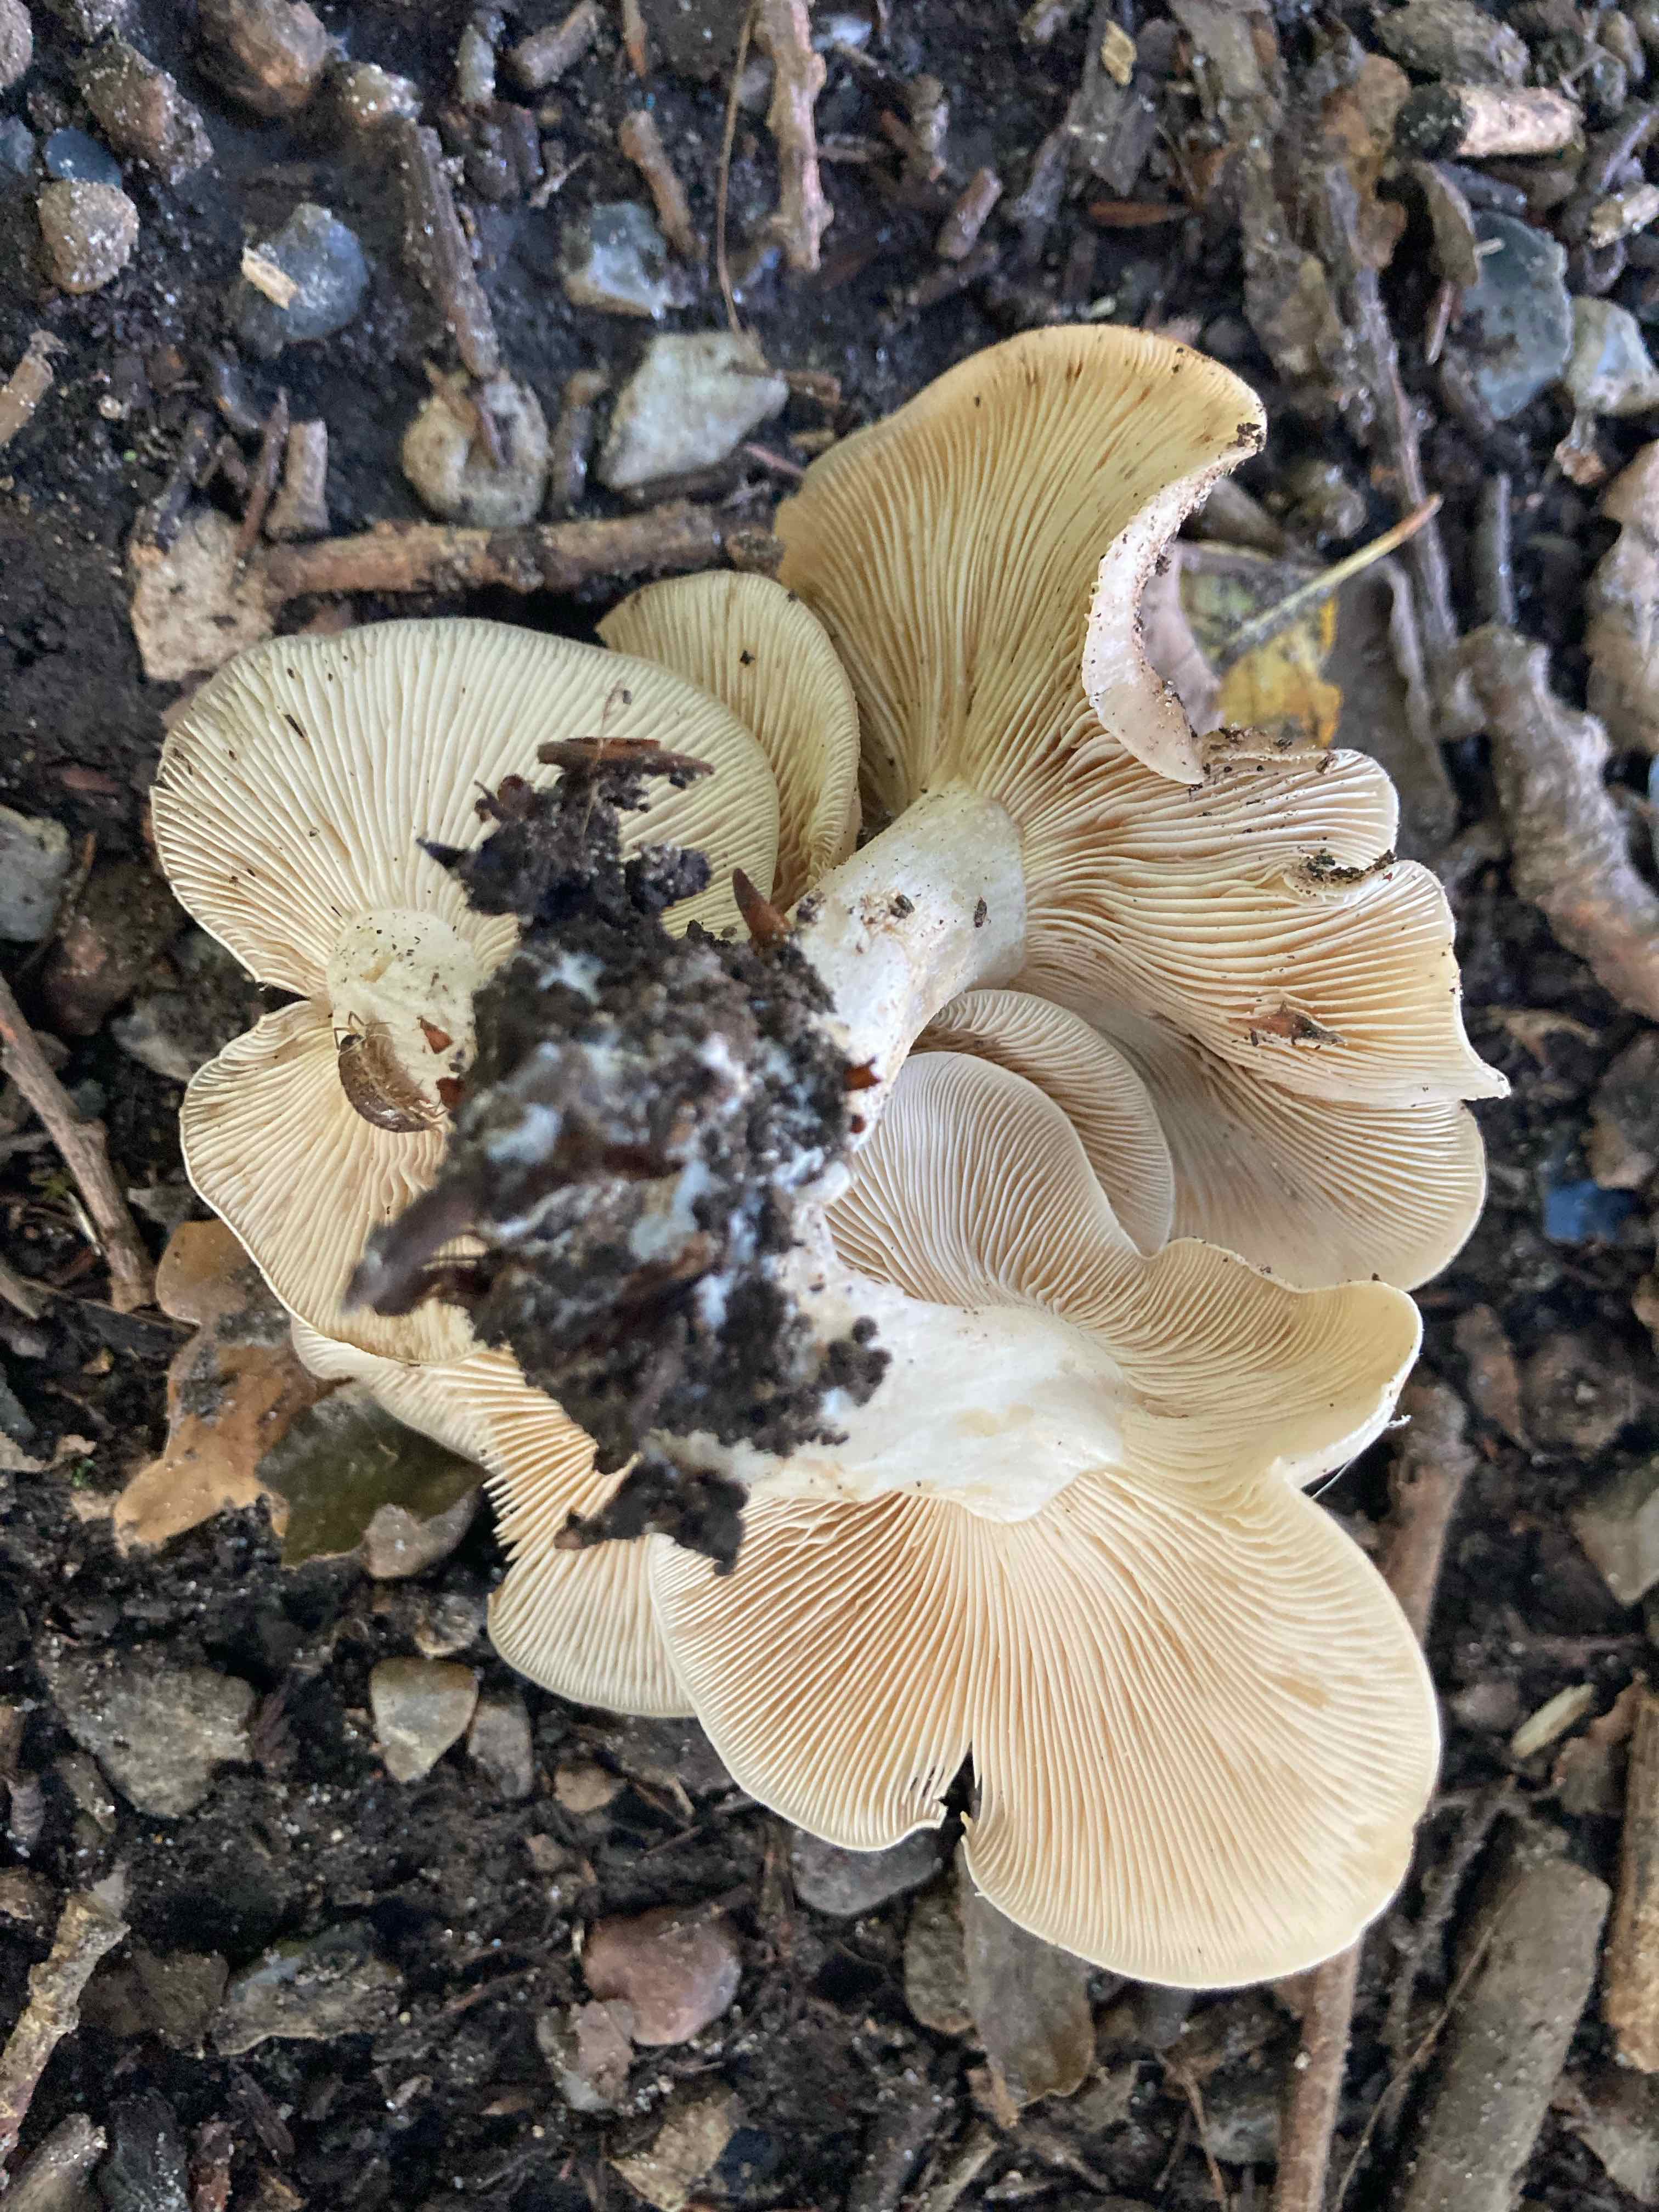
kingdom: Fungi
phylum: Basidiomycota
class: Agaricomycetes
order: Agaricales
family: Lyophyllaceae
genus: Lyophyllum
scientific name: Lyophyllum
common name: gråblad
